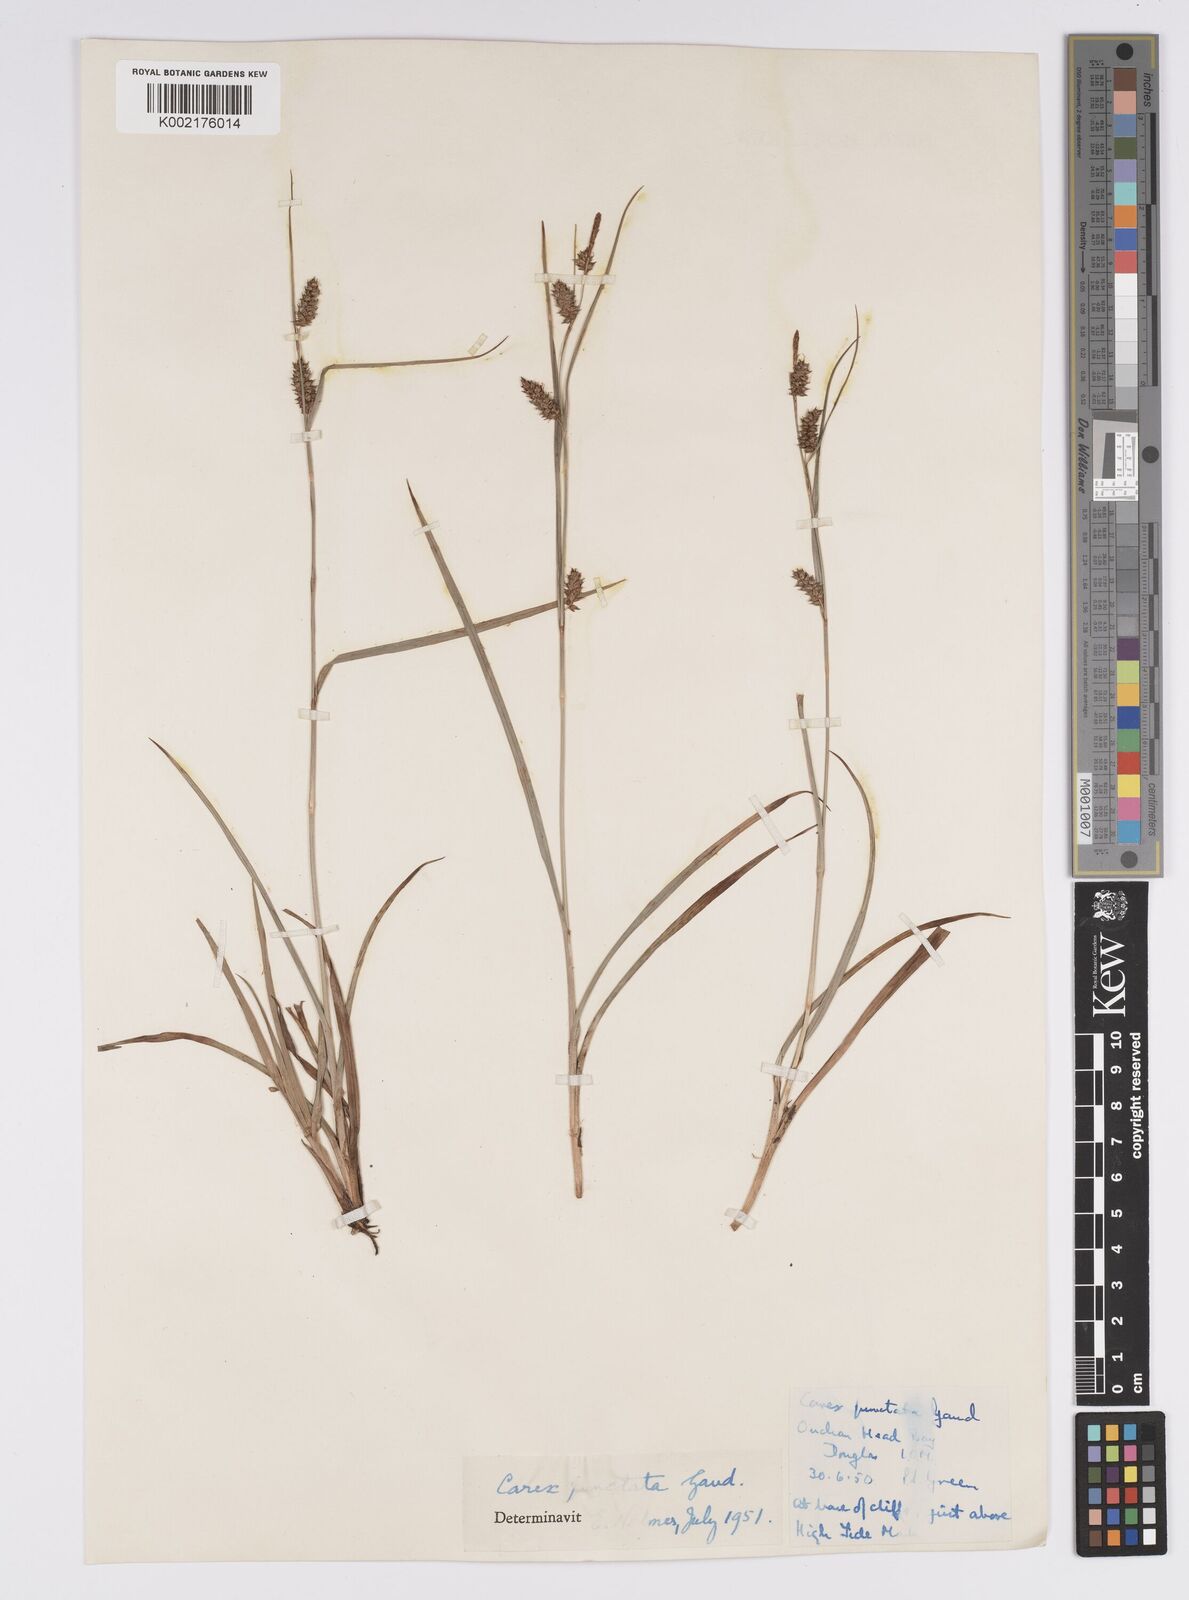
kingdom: Plantae
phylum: Tracheophyta
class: Liliopsida
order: Poales
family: Cyperaceae
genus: Carex
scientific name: Carex punctata
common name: Dotted sedge
